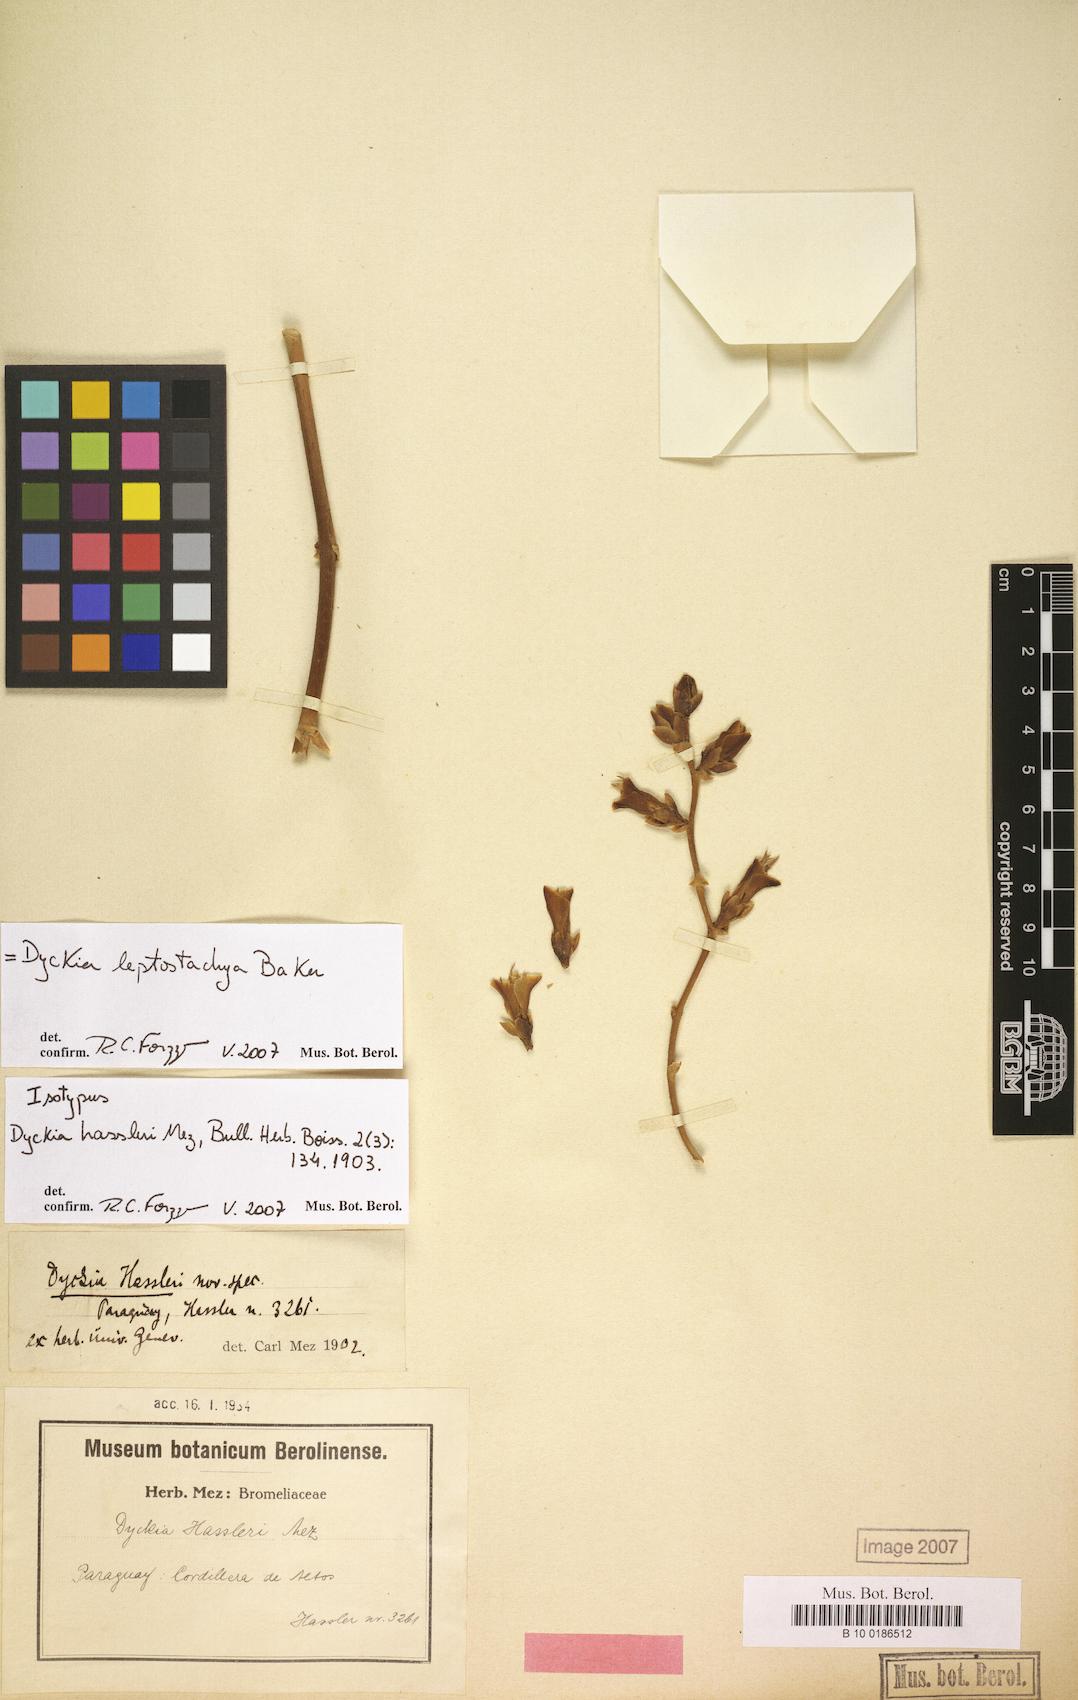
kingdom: Plantae
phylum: Tracheophyta
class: Liliopsida
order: Poales
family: Bromeliaceae
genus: Dyckia
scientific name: Dyckia leptostachya
